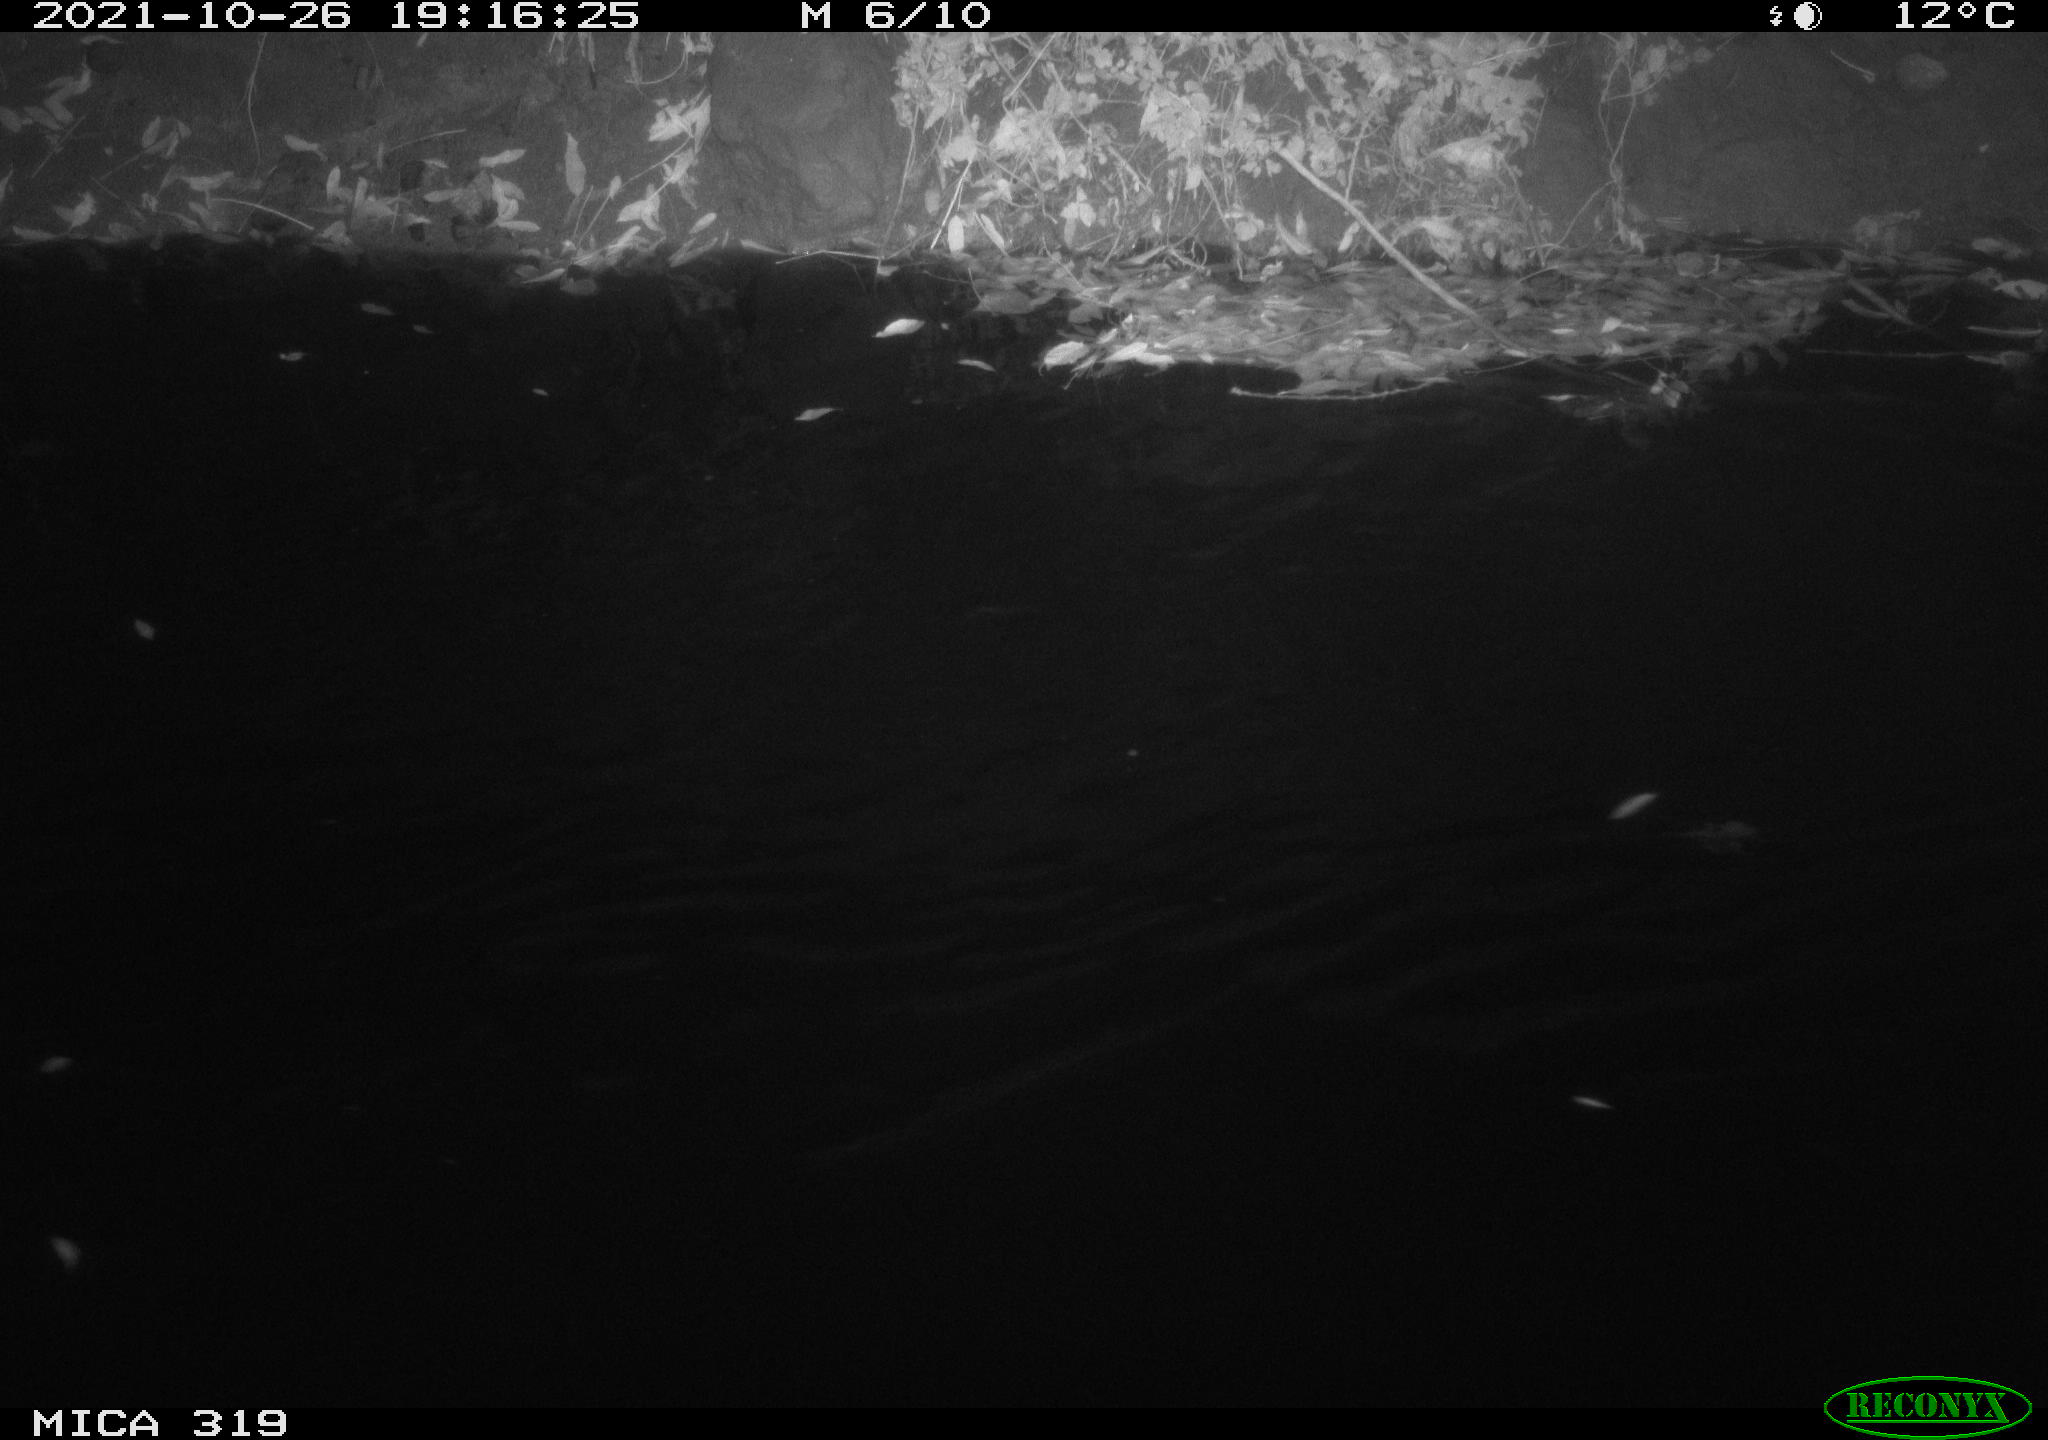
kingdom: Animalia
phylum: Chordata
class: Aves
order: Anseriformes
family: Anatidae
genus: Anas
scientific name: Anas platyrhynchos
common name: Mallard
